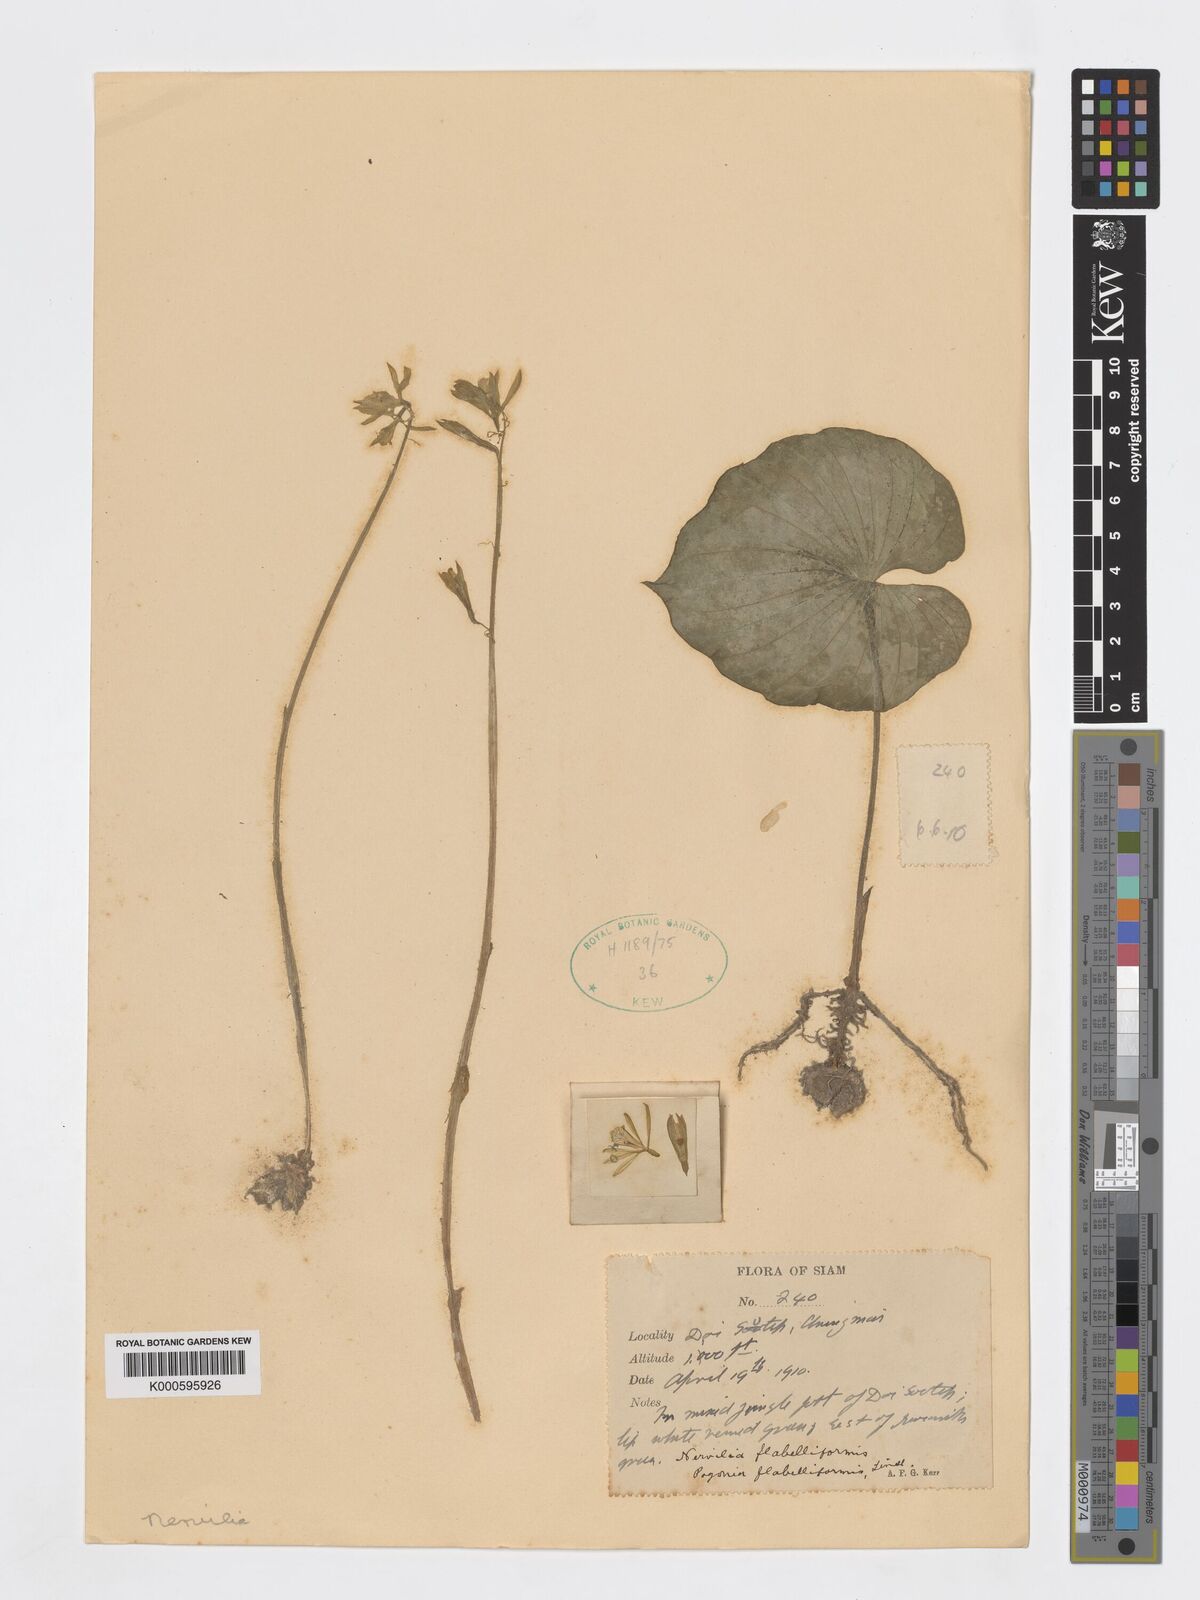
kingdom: Plantae
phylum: Tracheophyta
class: Liliopsida
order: Asparagales
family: Orchidaceae
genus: Nervilia
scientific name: Nervilia concolor
